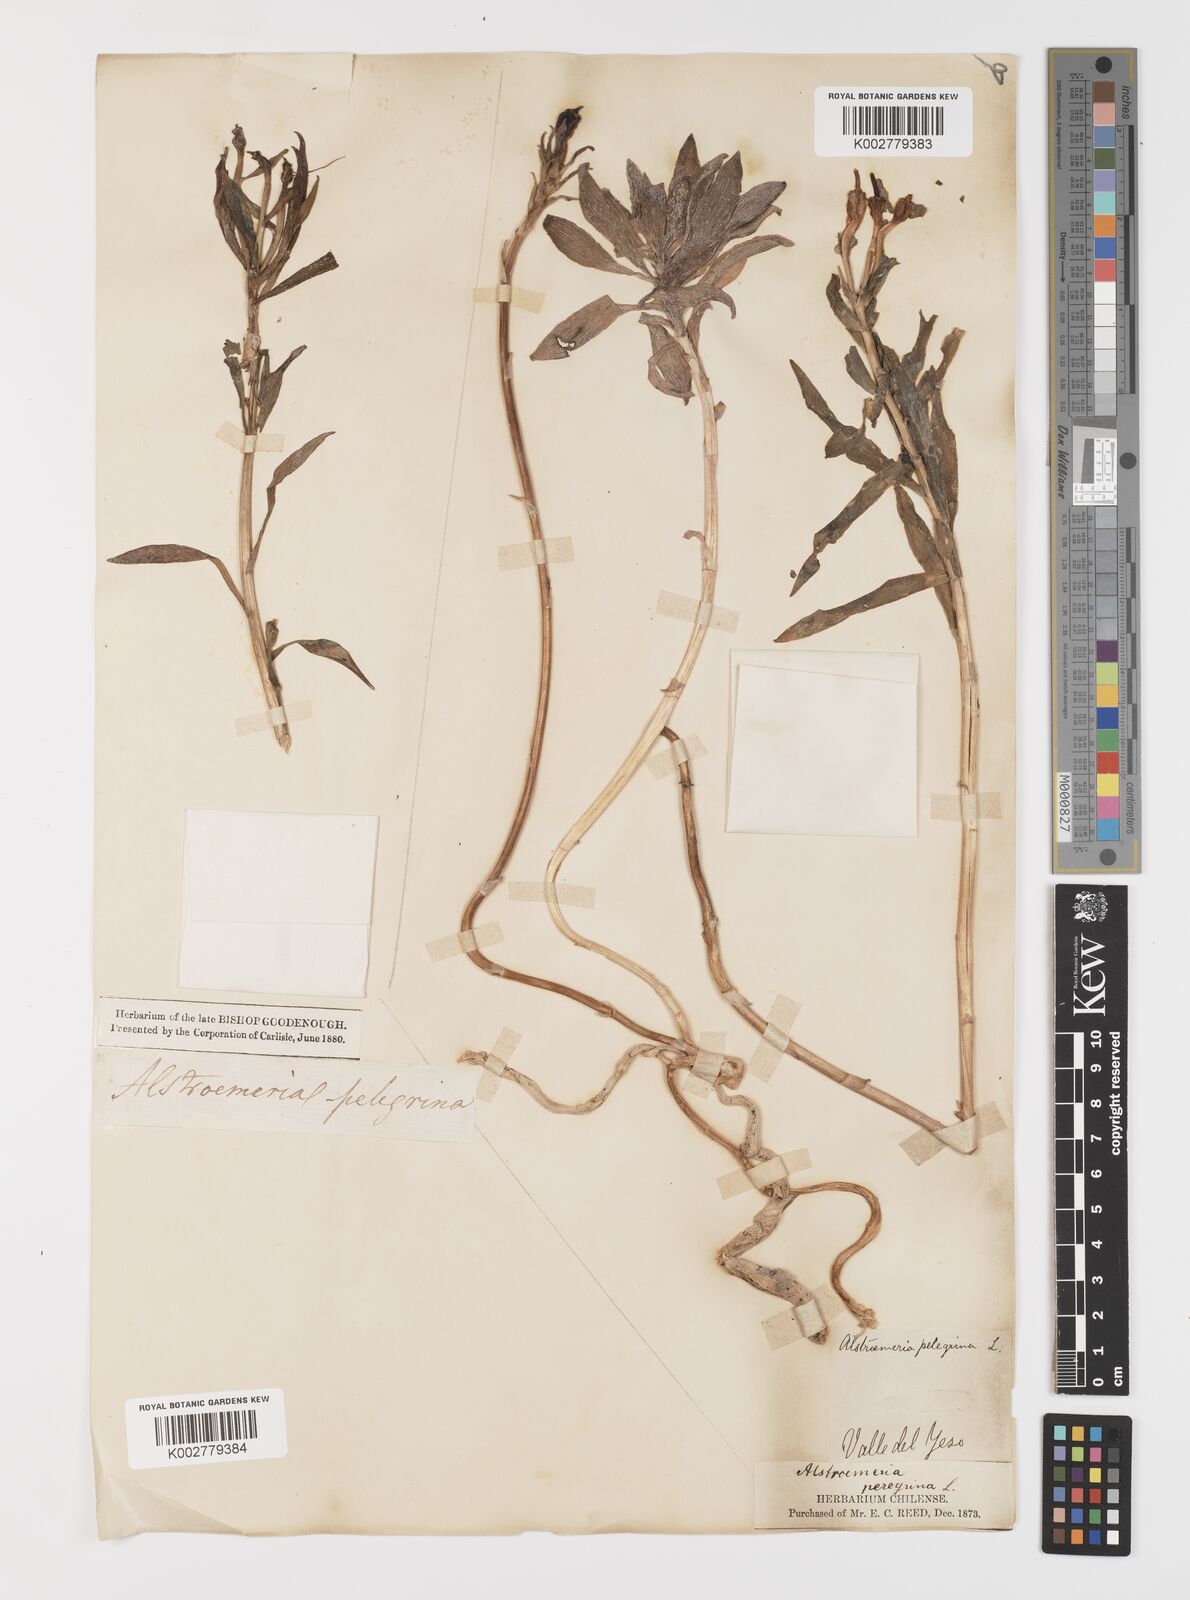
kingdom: Plantae
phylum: Tracheophyta
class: Liliopsida
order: Liliales
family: Alstroemeriaceae
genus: Alstroemeria
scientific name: Alstroemeria pelegrina
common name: Peruvian-lily
